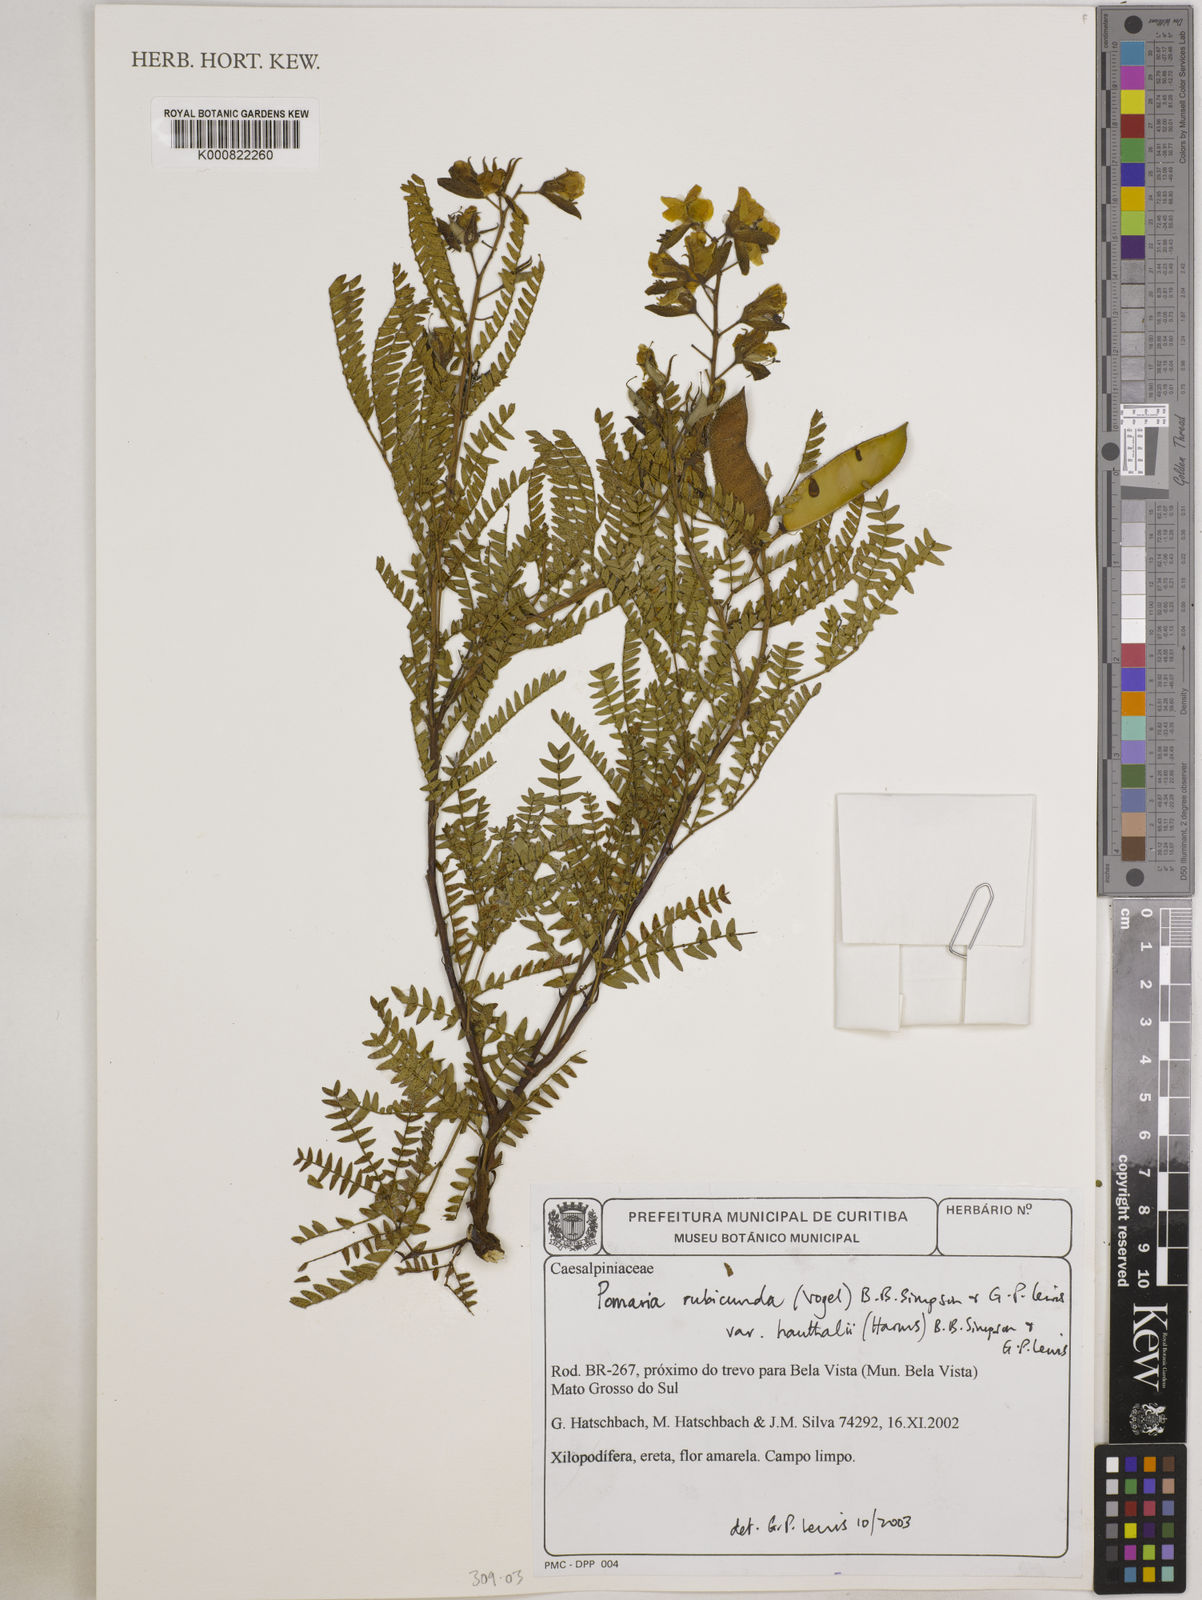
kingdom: Plantae
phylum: Tracheophyta
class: Magnoliopsida
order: Fabales
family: Fabaceae
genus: Pomaria
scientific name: Pomaria rubicunda
